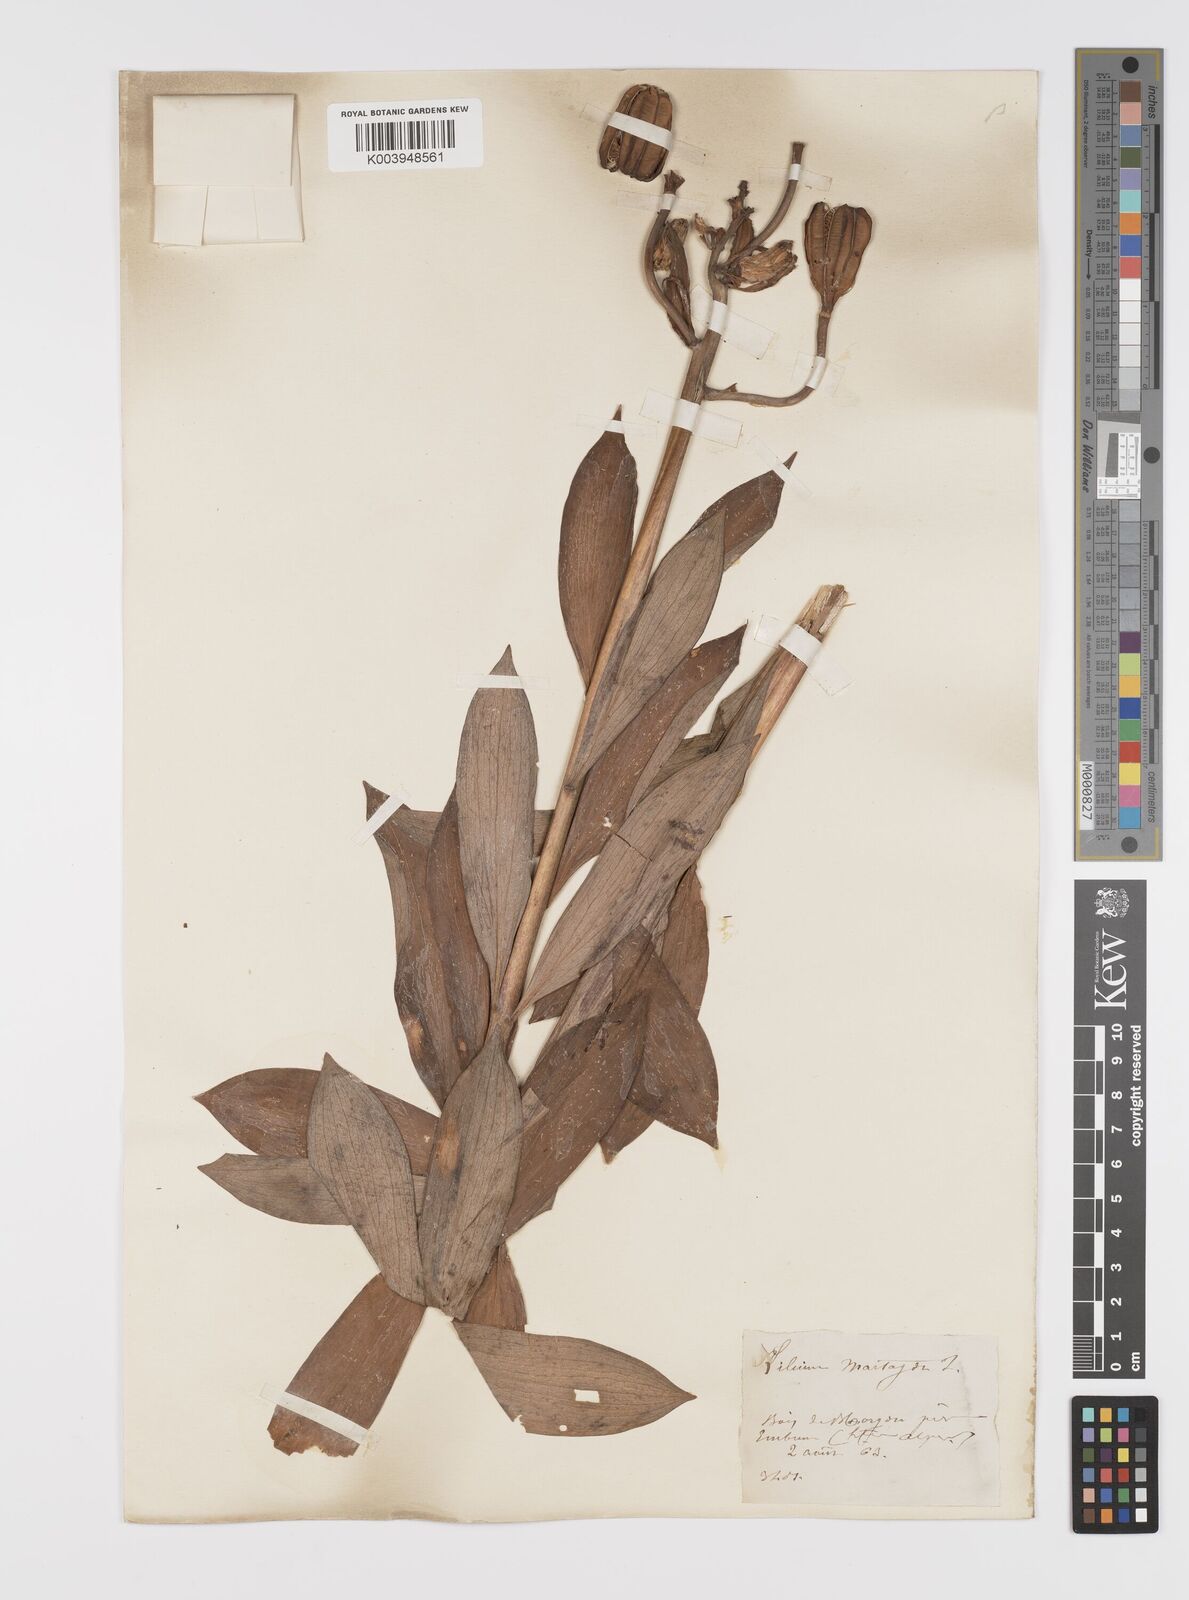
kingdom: Plantae
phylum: Tracheophyta
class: Liliopsida
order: Liliales
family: Liliaceae
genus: Lilium
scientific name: Lilium martagon
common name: Martagon lily
